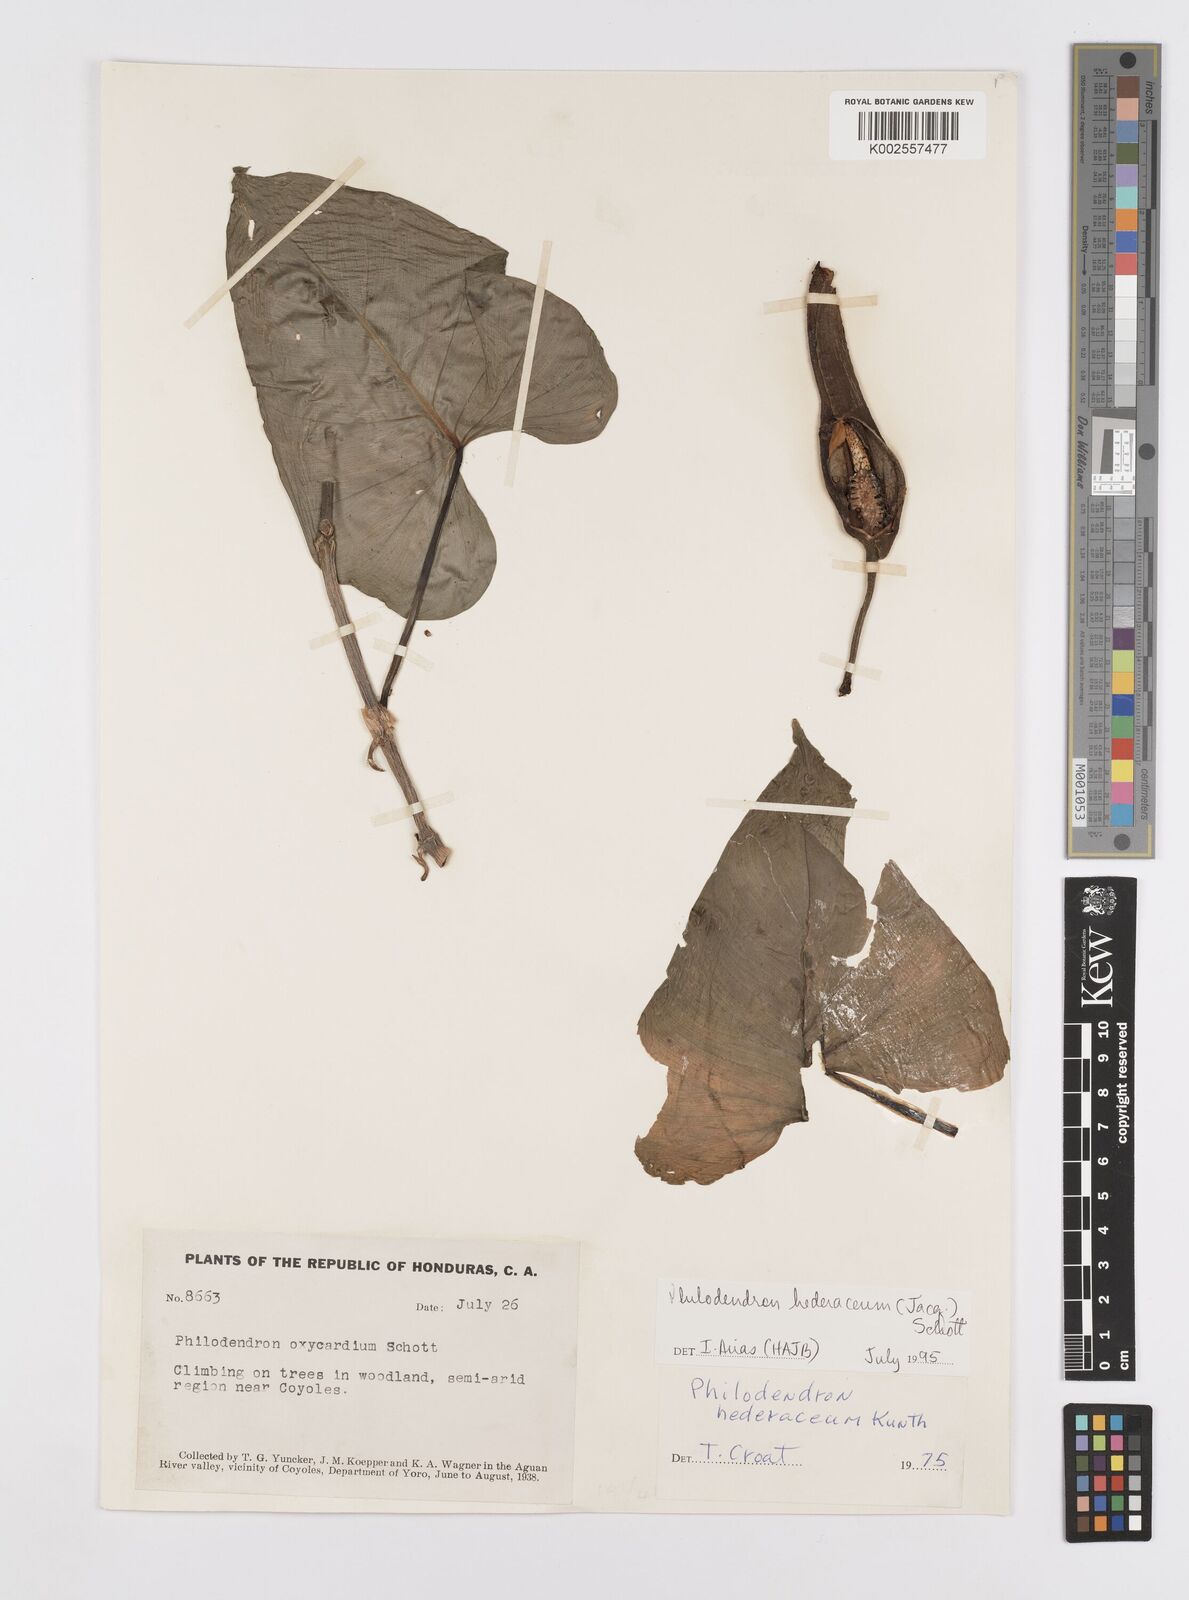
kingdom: Plantae
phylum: Tracheophyta
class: Liliopsida
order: Alismatales
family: Araceae
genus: Philodendron
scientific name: Philodendron hederaceum
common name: Vilevine
